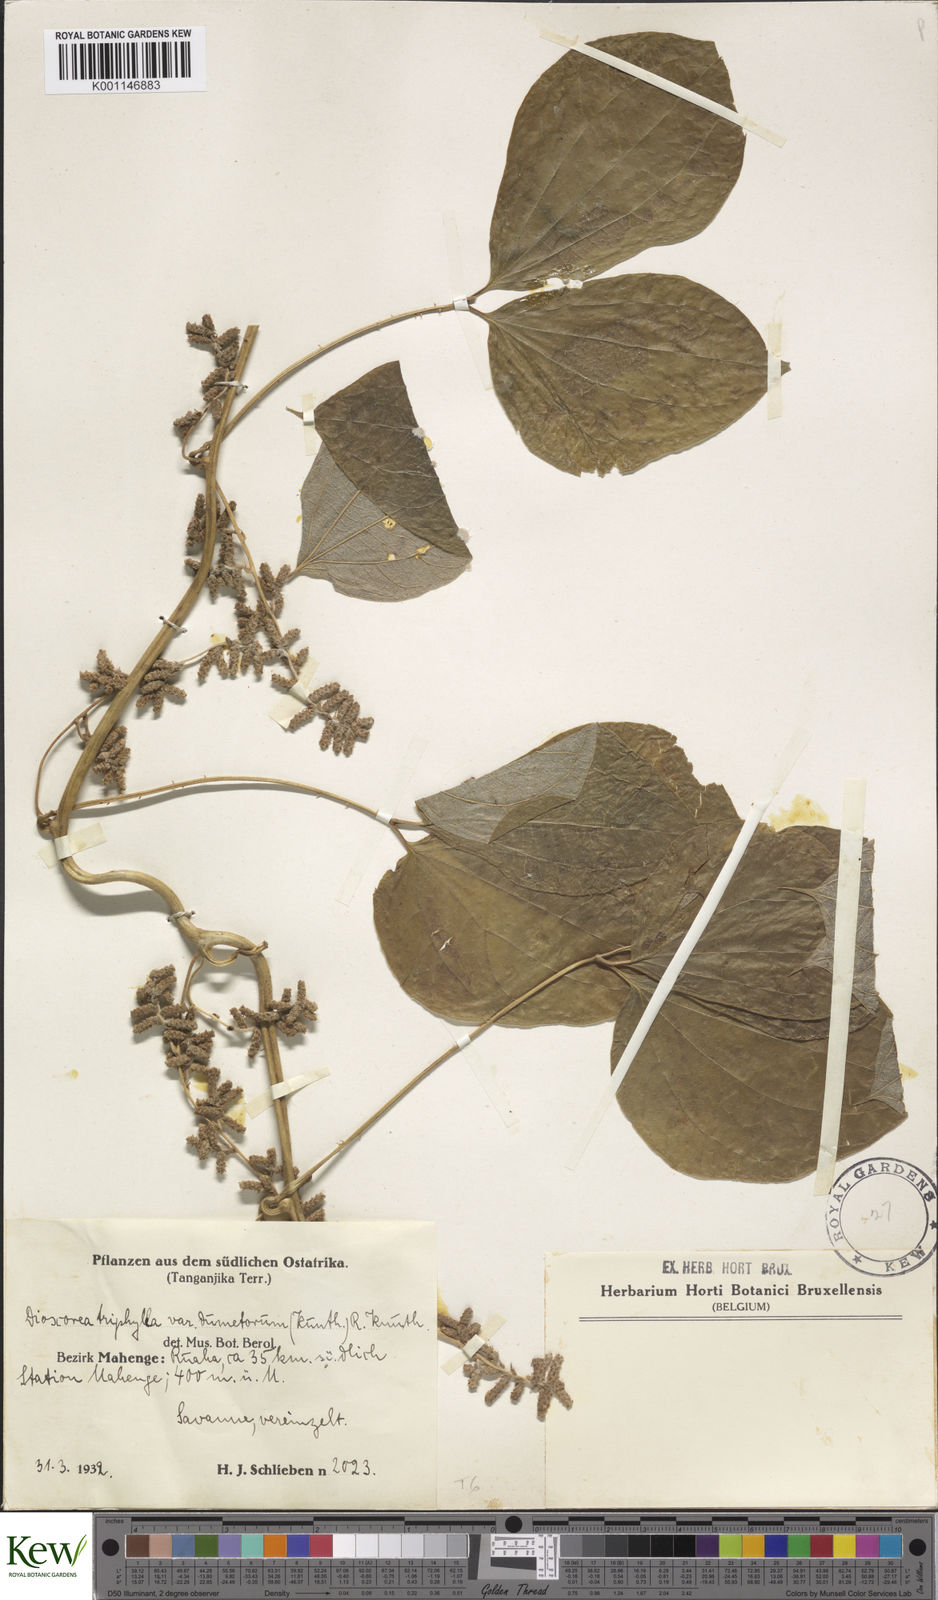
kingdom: Plantae
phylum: Tracheophyta
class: Liliopsida
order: Dioscoreales
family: Dioscoreaceae
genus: Dioscorea
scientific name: Dioscorea dumetorum
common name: African bitter yam
